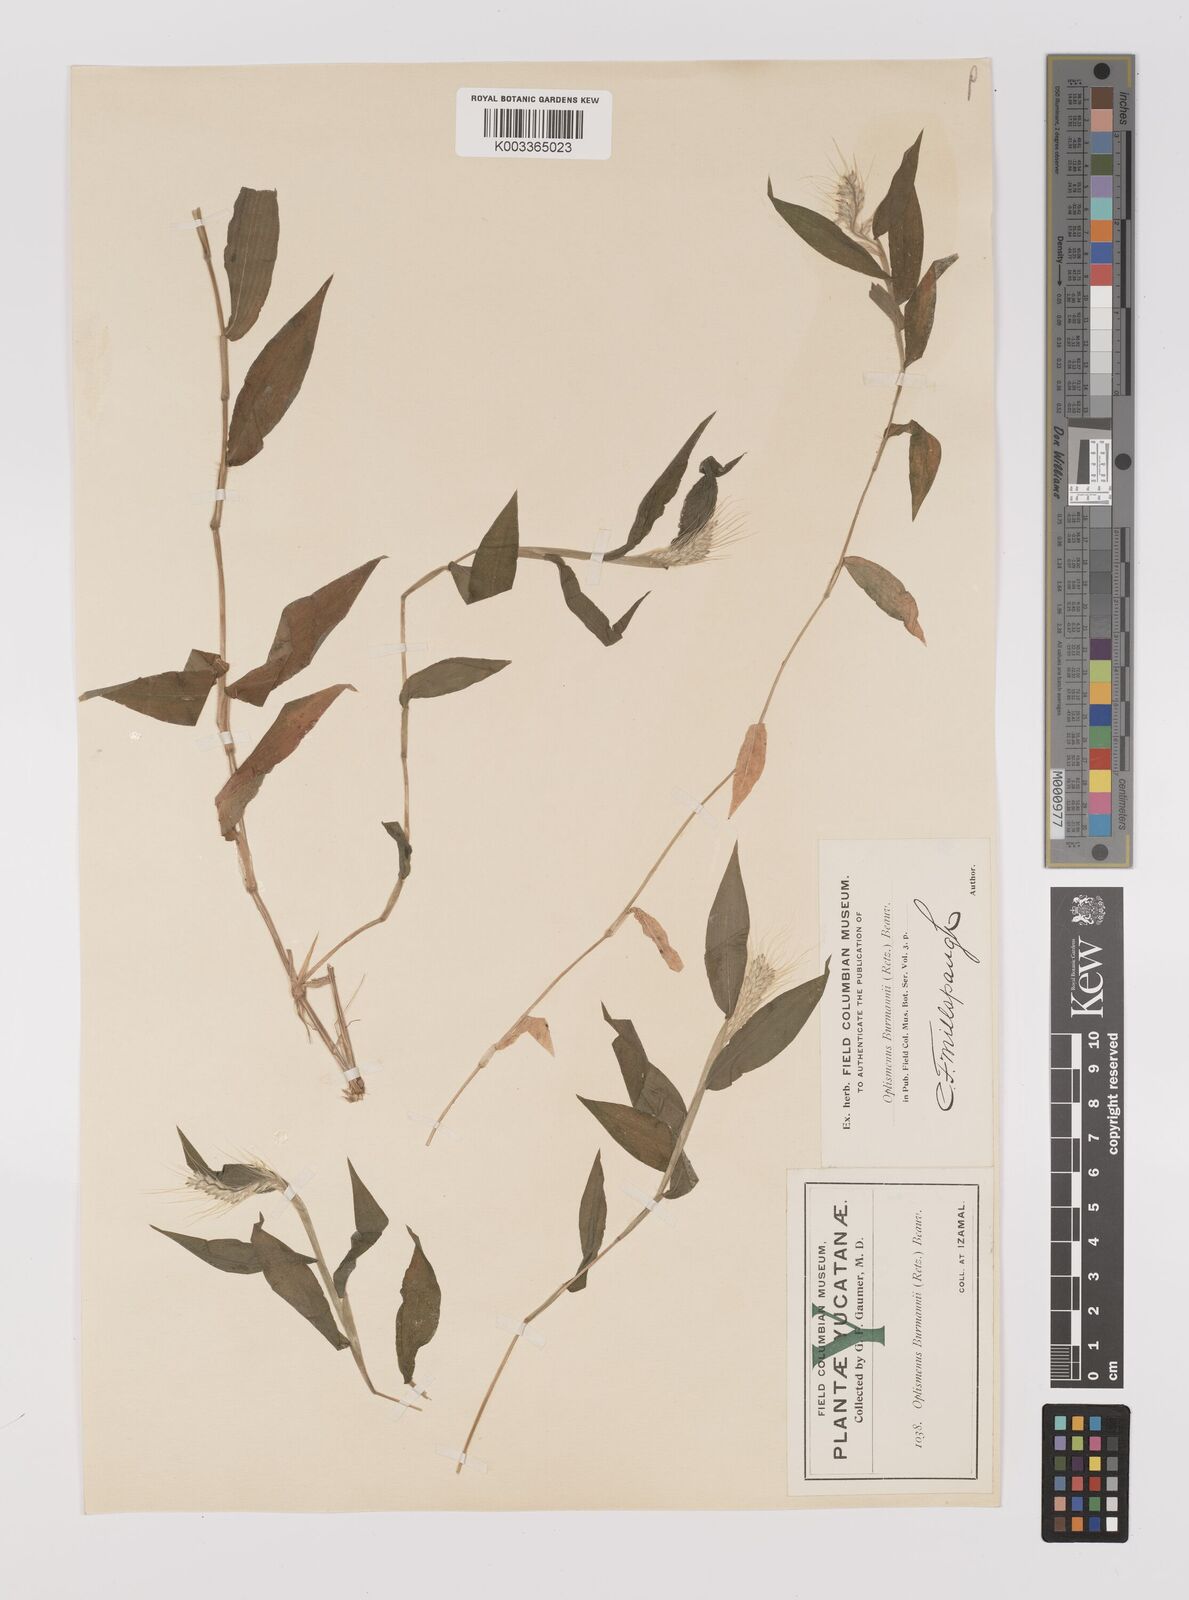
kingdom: Plantae
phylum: Tracheophyta
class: Liliopsida
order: Poales
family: Poaceae
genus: Oplismenus
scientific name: Oplismenus burmanni
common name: Burmann's basketgrass
